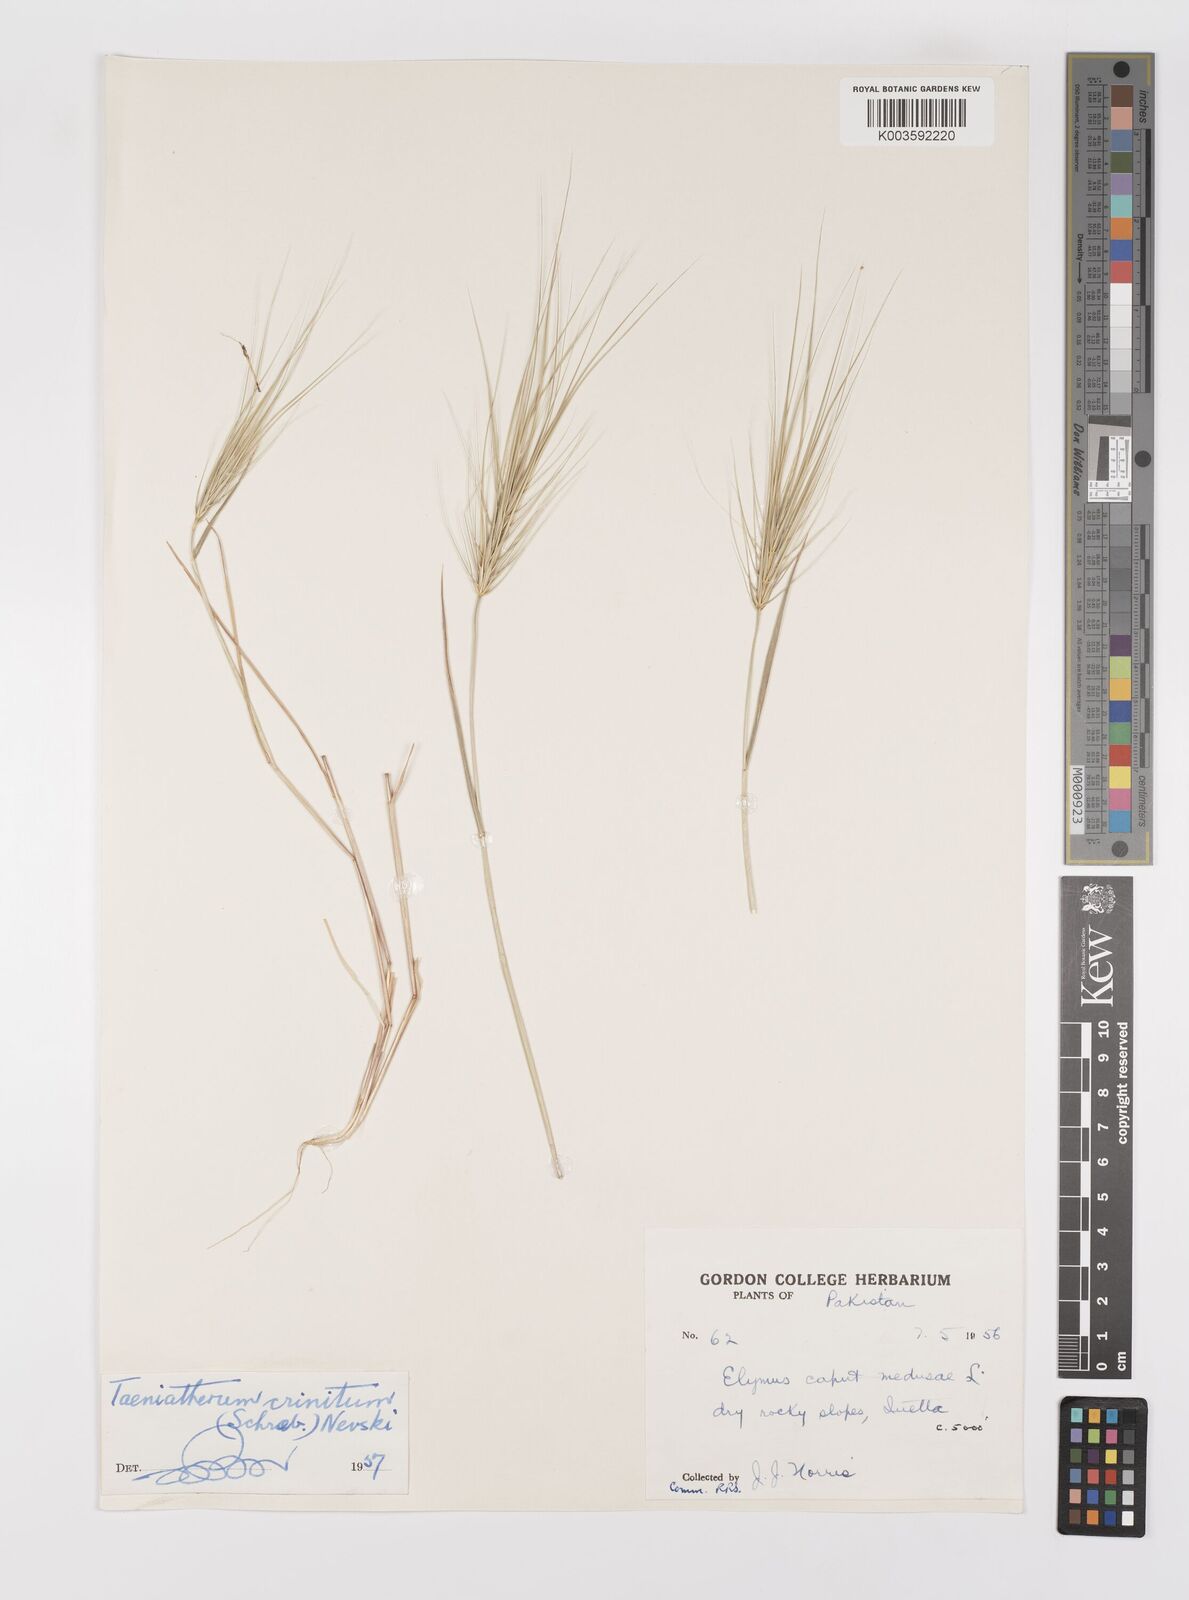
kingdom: Plantae
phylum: Tracheophyta
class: Liliopsida
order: Poales
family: Poaceae
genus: Taeniatherum
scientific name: Taeniatherum caput-medusae
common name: Medusahead
